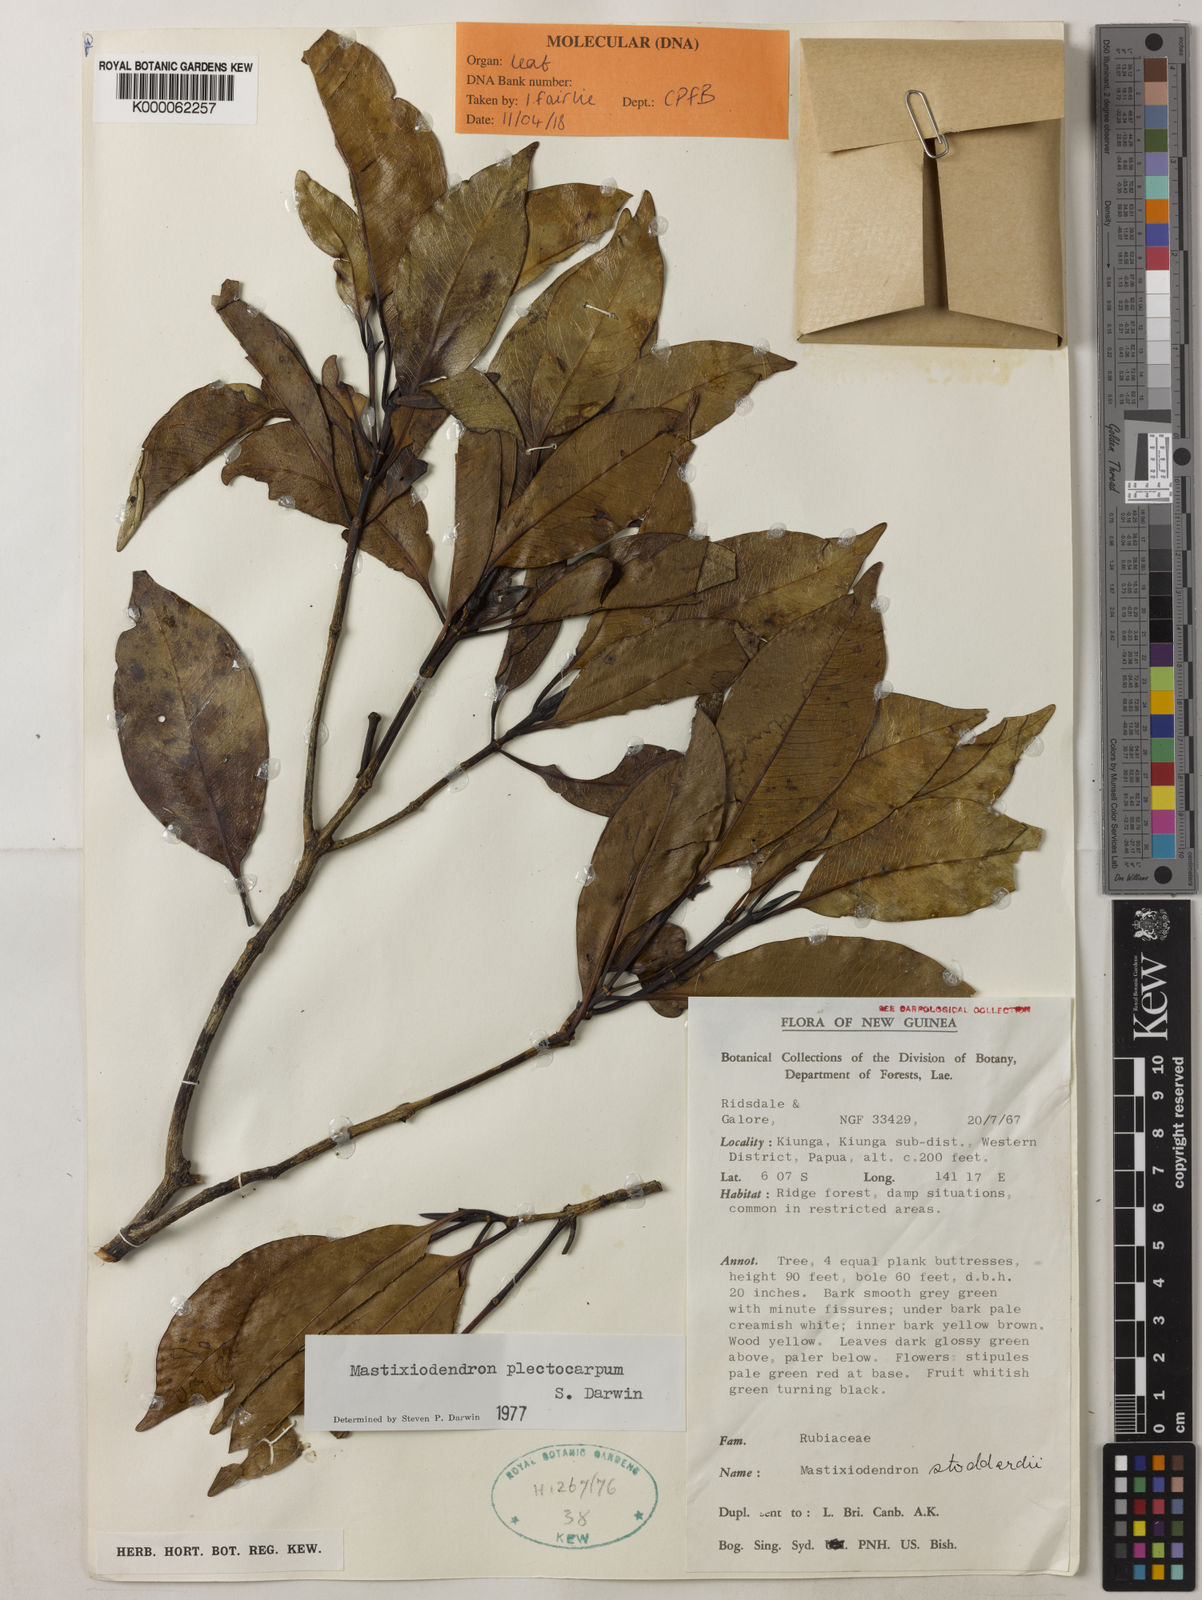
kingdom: Plantae
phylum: Tracheophyta
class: Magnoliopsida
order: Gentianales
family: Rubiaceae
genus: Mastixiodendron
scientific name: Mastixiodendron plectocarpum
